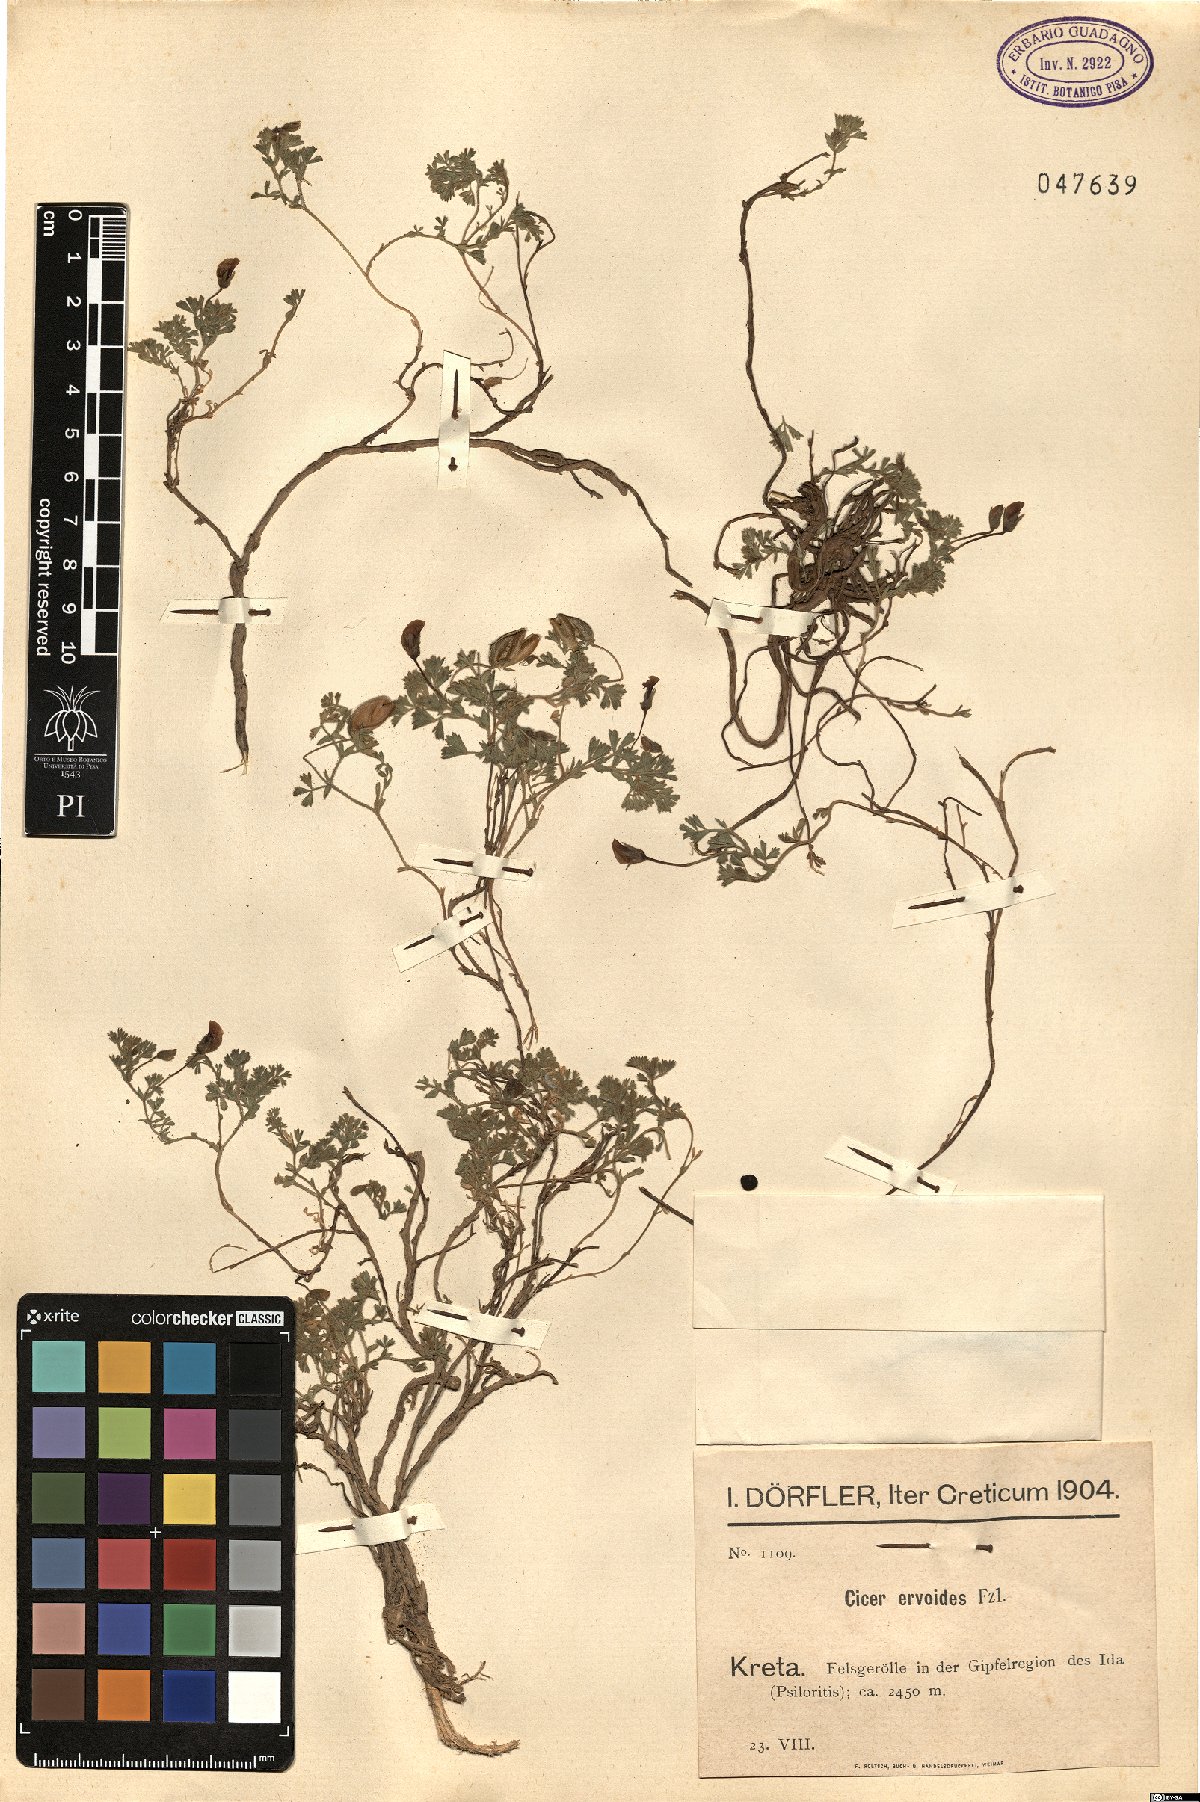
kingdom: Plantae
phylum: Tracheophyta
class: Magnoliopsida
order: Fabales
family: Fabaceae
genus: Vicia
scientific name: Vicia lenticula
